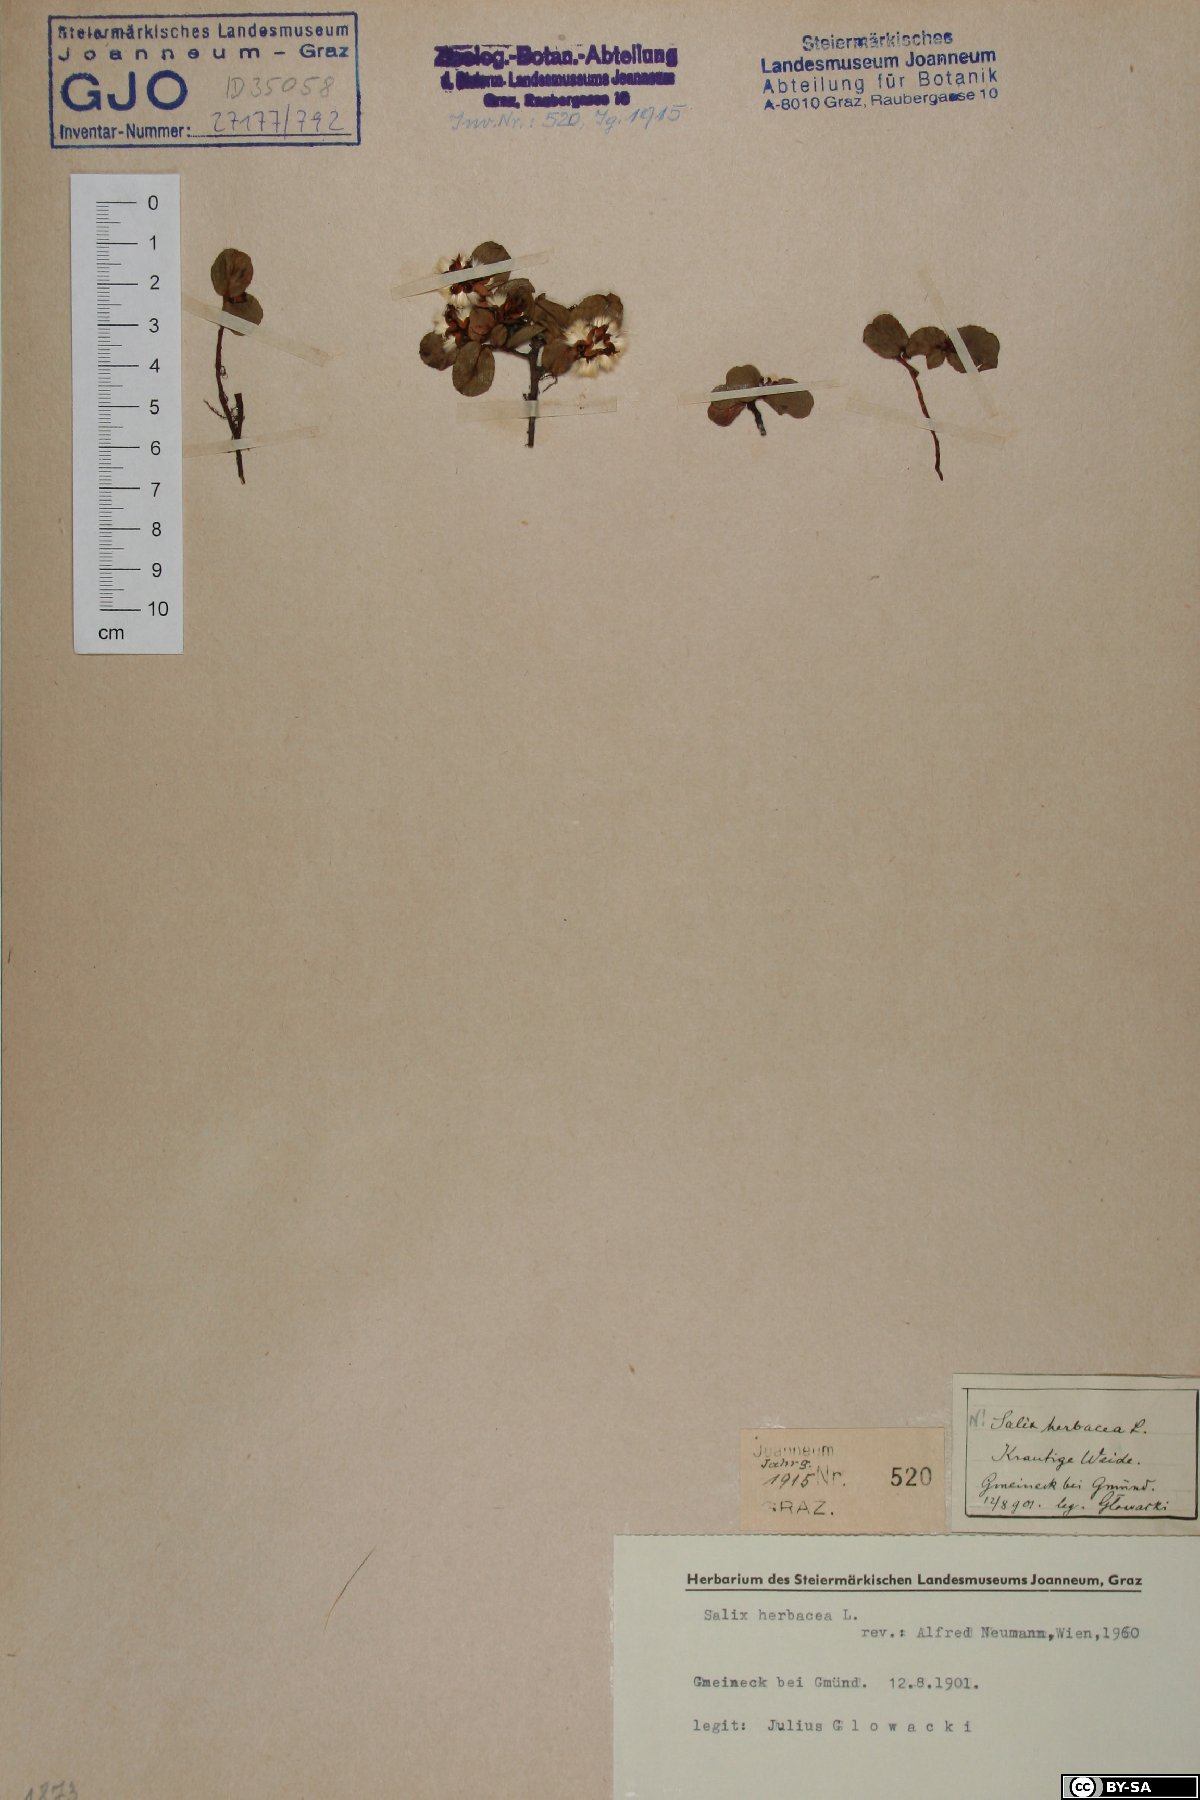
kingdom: Plantae
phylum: Tracheophyta
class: Magnoliopsida
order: Malpighiales
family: Salicaceae
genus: Salix
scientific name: Salix herbacea
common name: Dwarf willow
